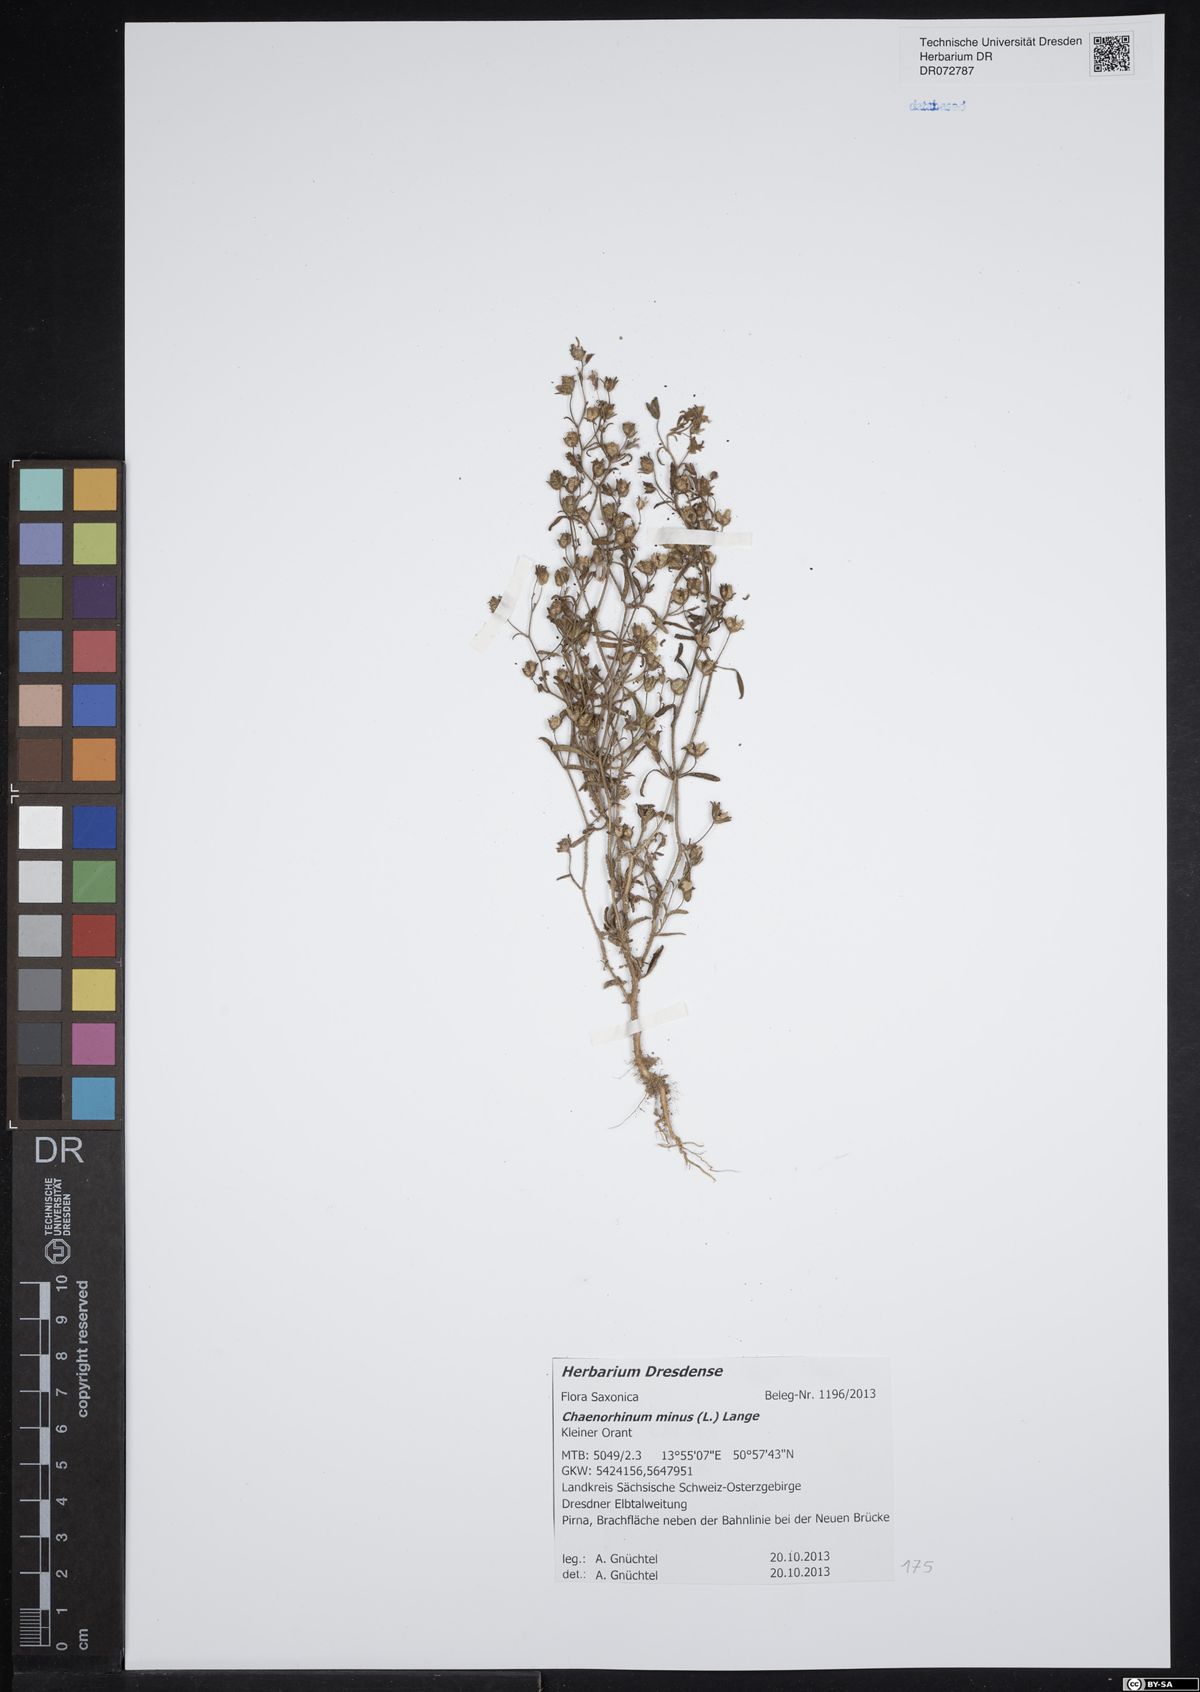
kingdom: Plantae
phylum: Tracheophyta
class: Magnoliopsida
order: Lamiales
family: Plantaginaceae
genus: Chaenorhinum
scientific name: Chaenorhinum minus
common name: Dwarf snapdragon
